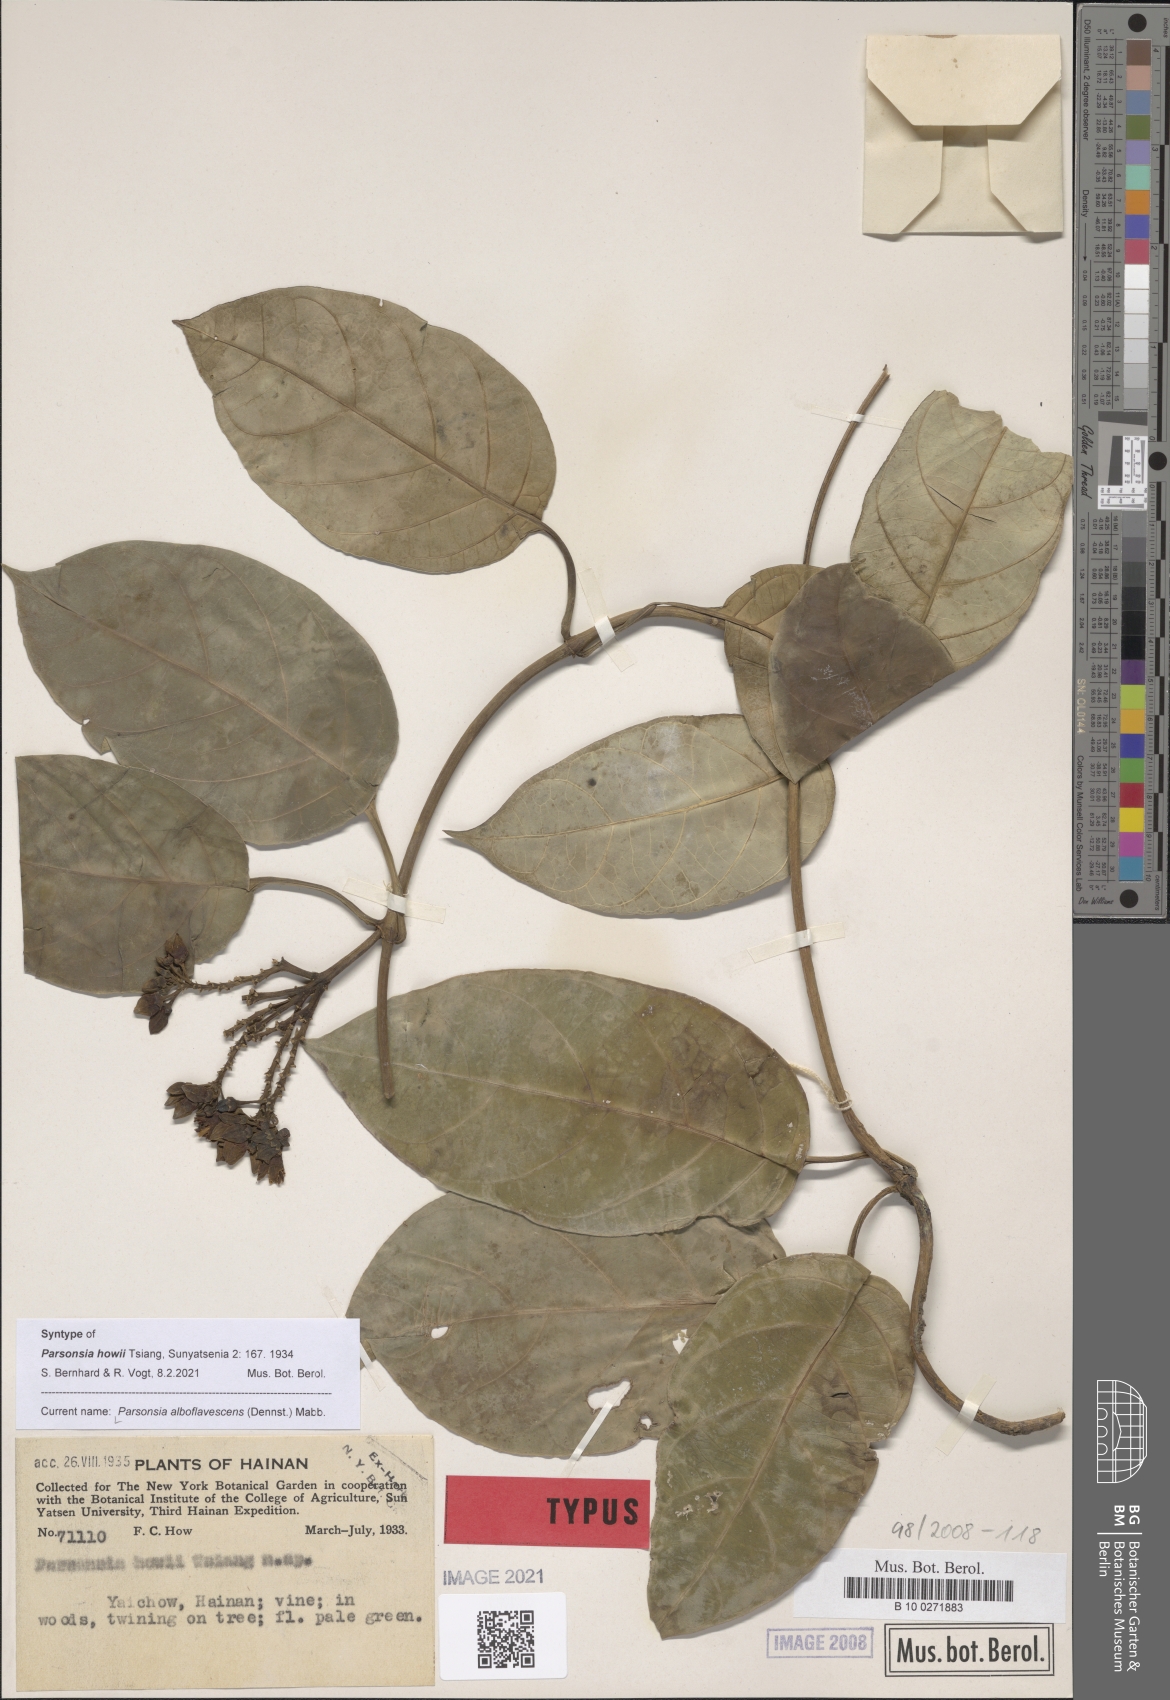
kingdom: Plantae
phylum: Tracheophyta
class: Magnoliopsida
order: Gentianales
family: Apocynaceae
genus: Parsonsia
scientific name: Parsonsia alboflavescens
